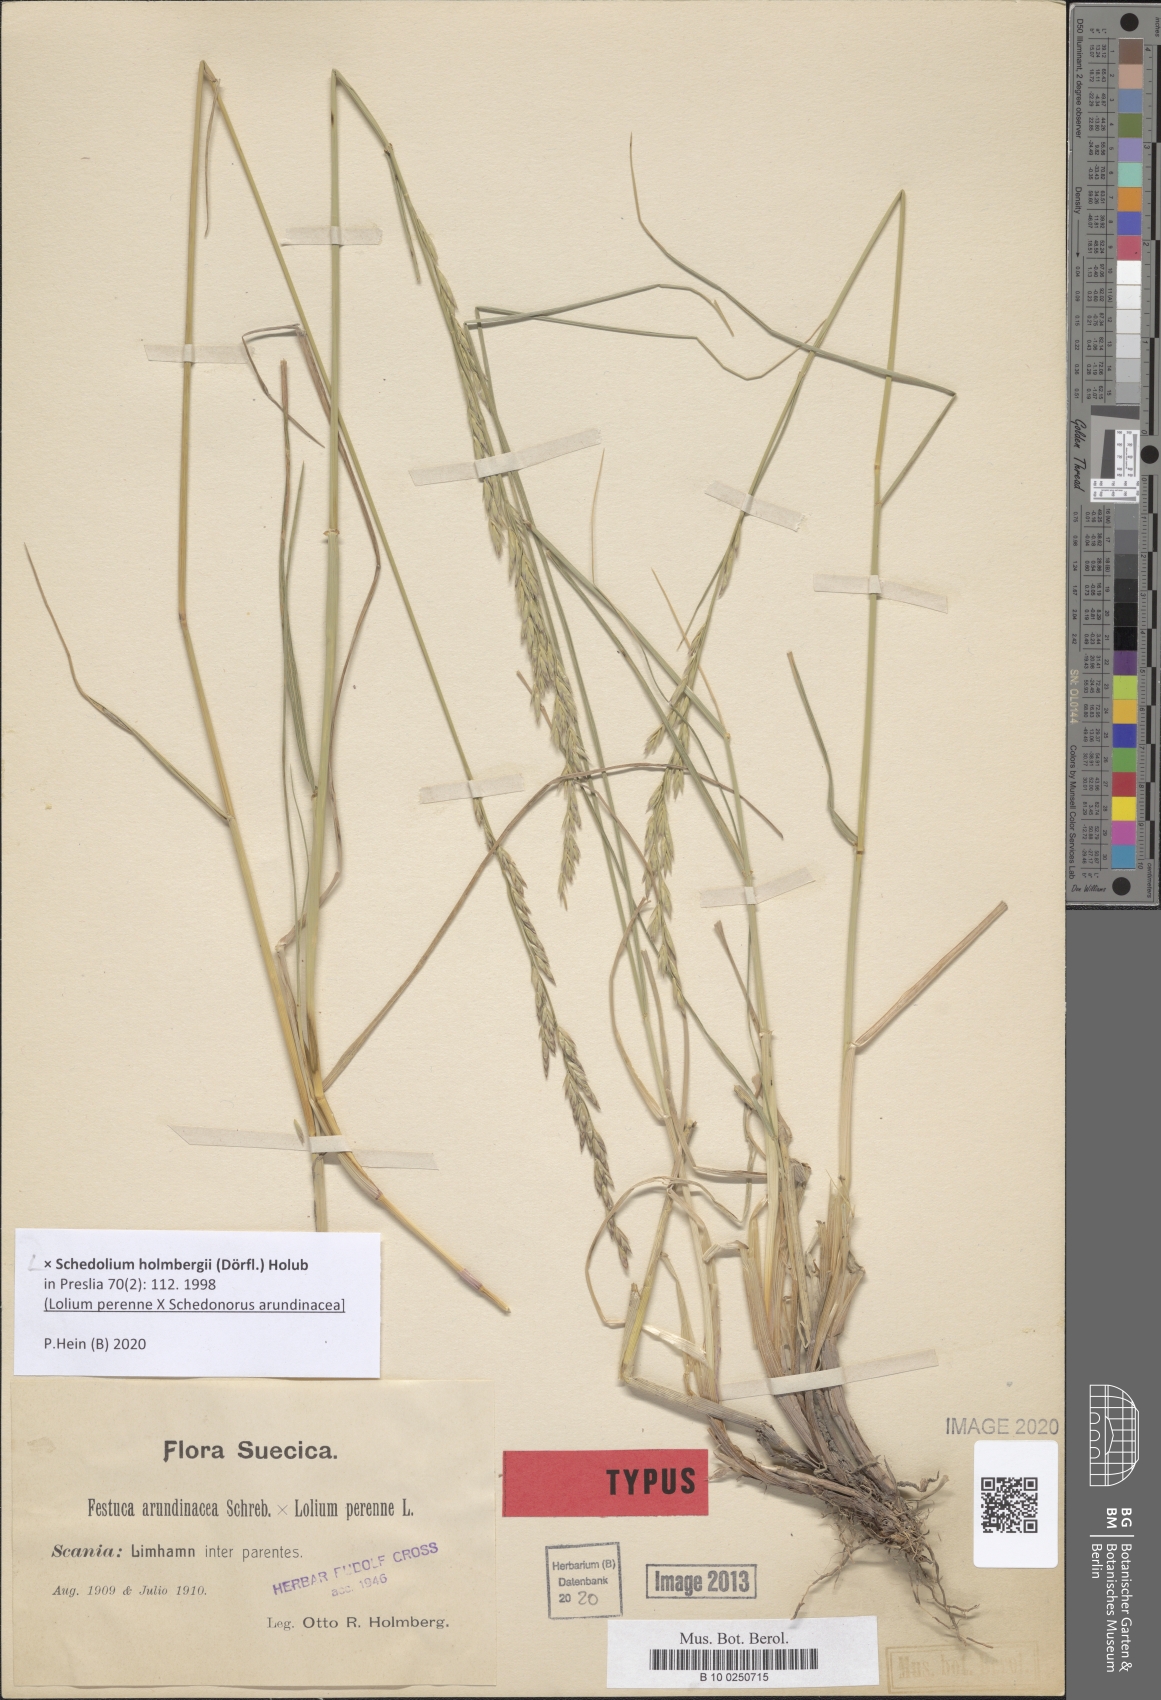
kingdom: Plantae
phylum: Tracheophyta
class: Liliopsida
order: Poales
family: Poaceae
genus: Lolium
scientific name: Lolium holmbergii
